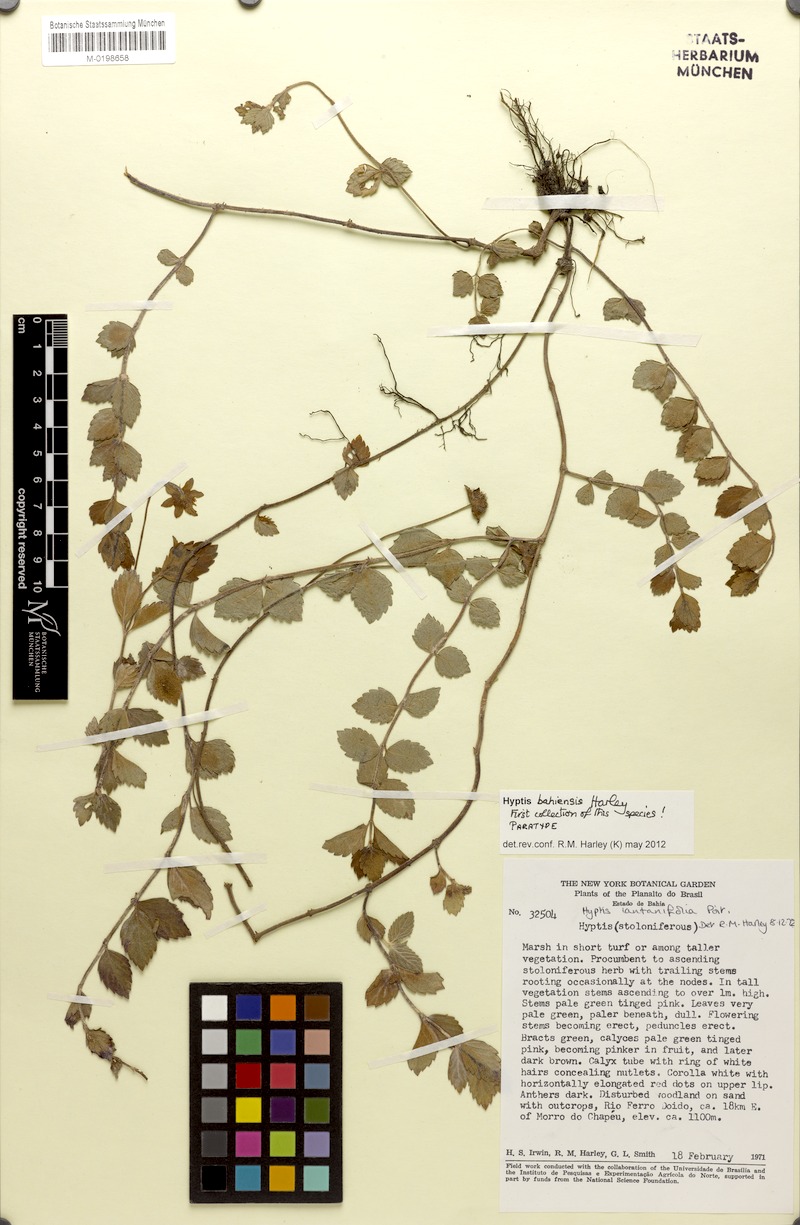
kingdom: Plantae
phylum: Tracheophyta
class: Magnoliopsida
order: Lamiales
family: Lamiaceae
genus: Hyptis
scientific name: Hyptis bahiensis
